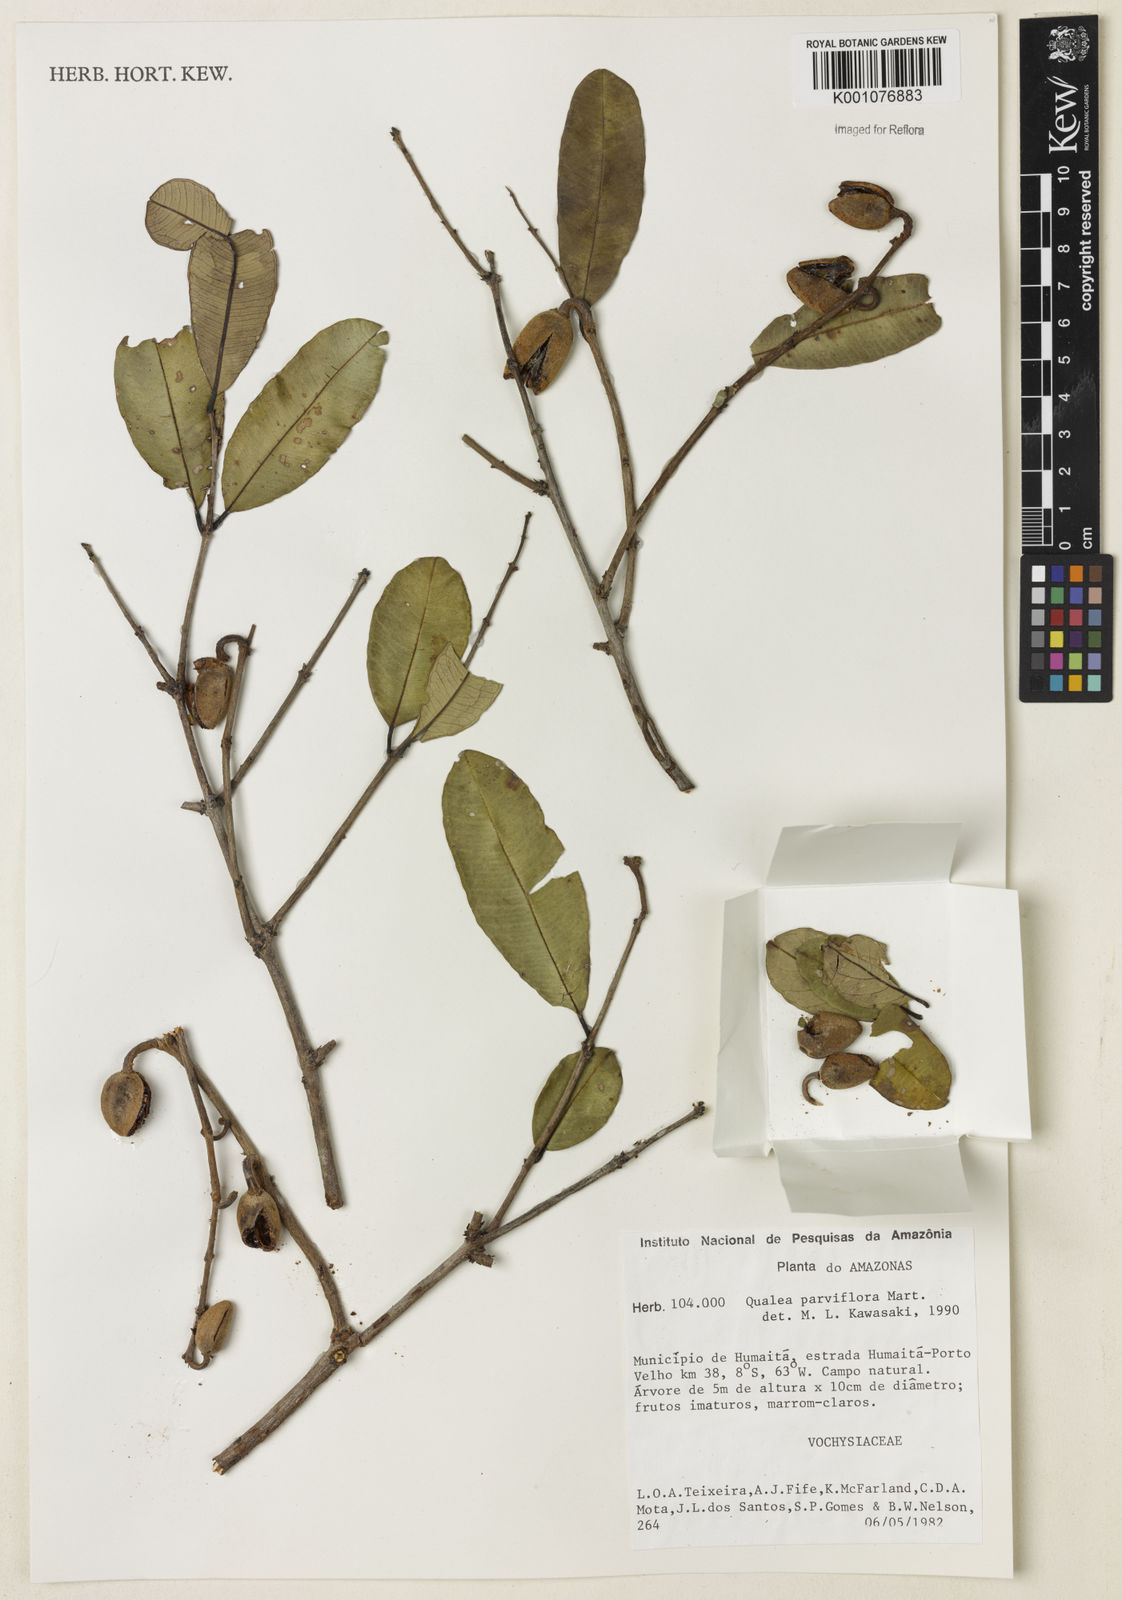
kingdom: Plantae
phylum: Tracheophyta
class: Magnoliopsida
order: Myrtales
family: Vochysiaceae
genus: Qualea
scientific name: Qualea parviflora
